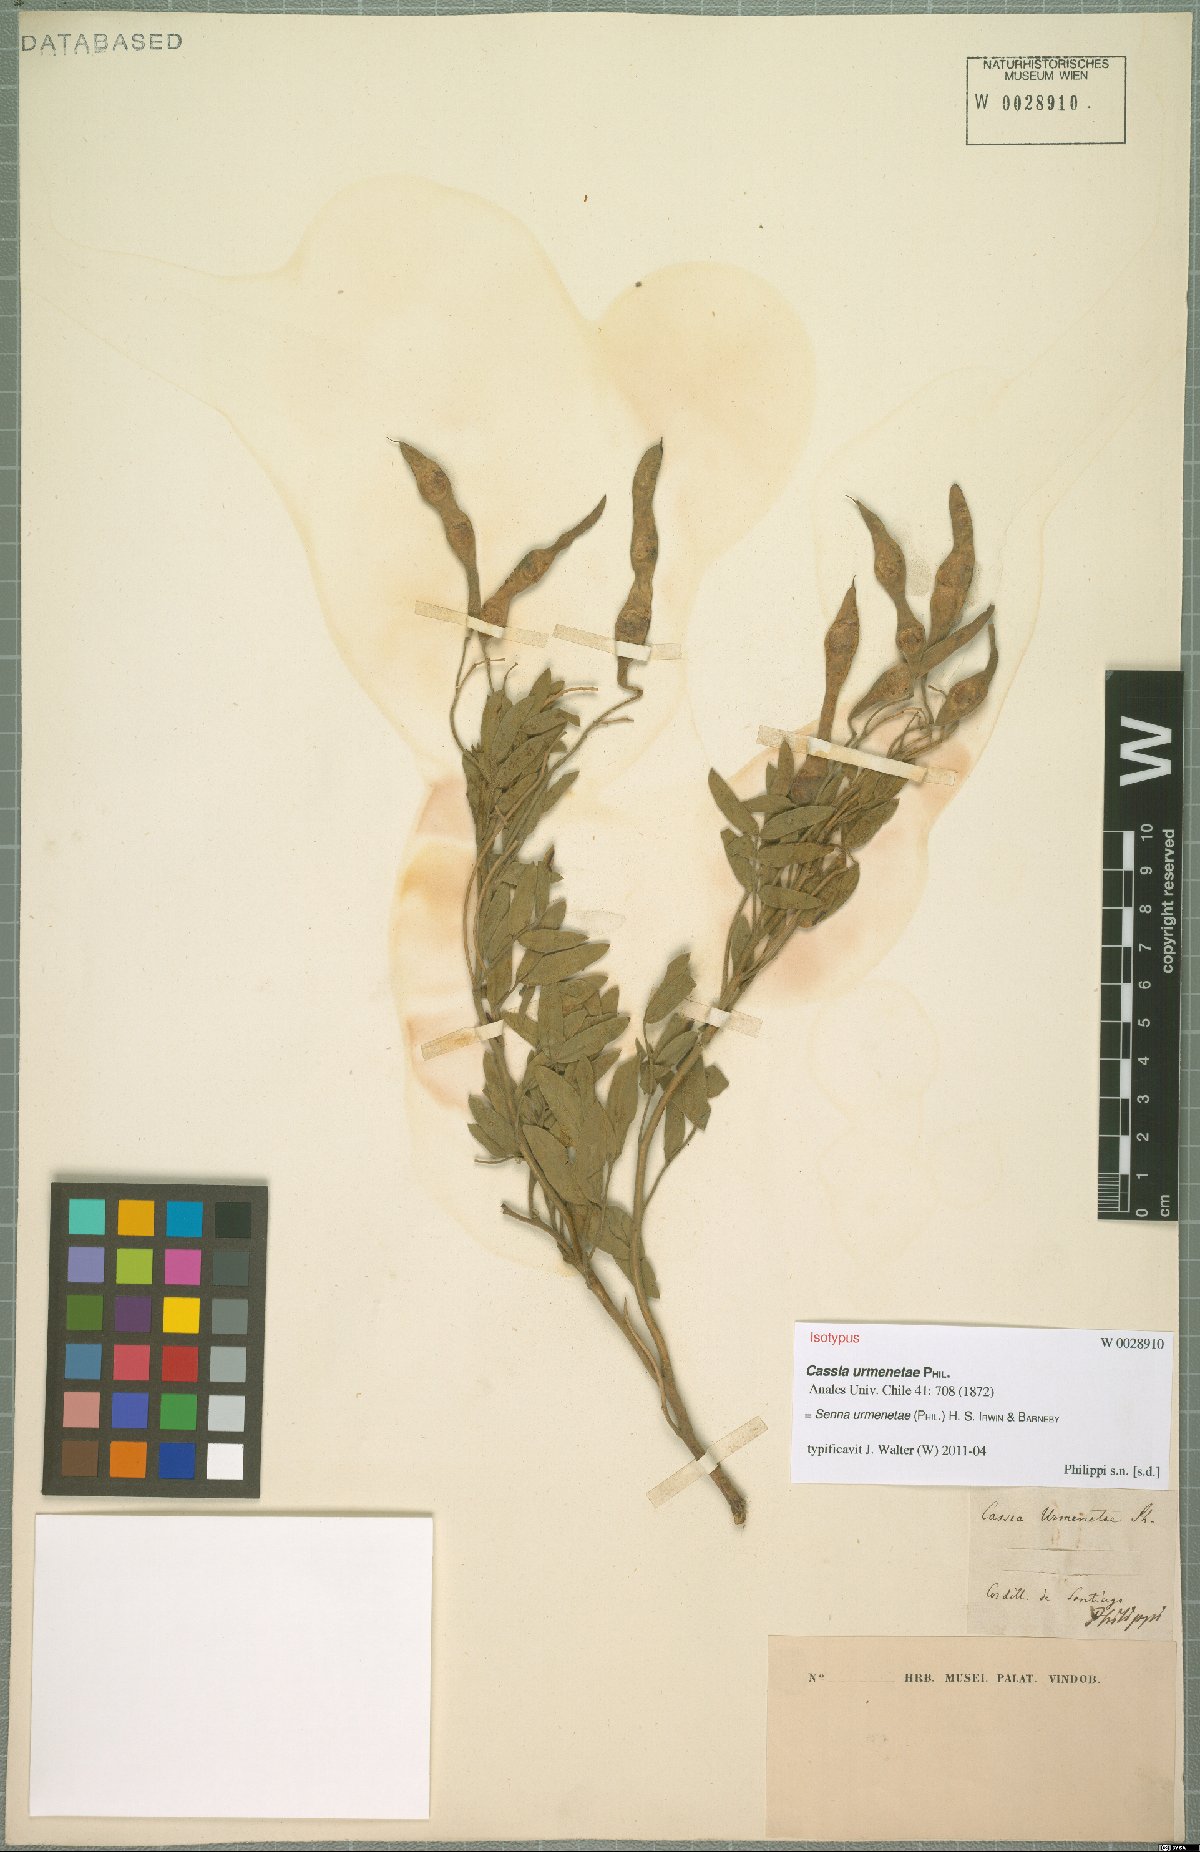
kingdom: Plantae
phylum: Tracheophyta
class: Magnoliopsida
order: Fabales
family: Fabaceae
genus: Senna
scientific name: Senna urmenetae
